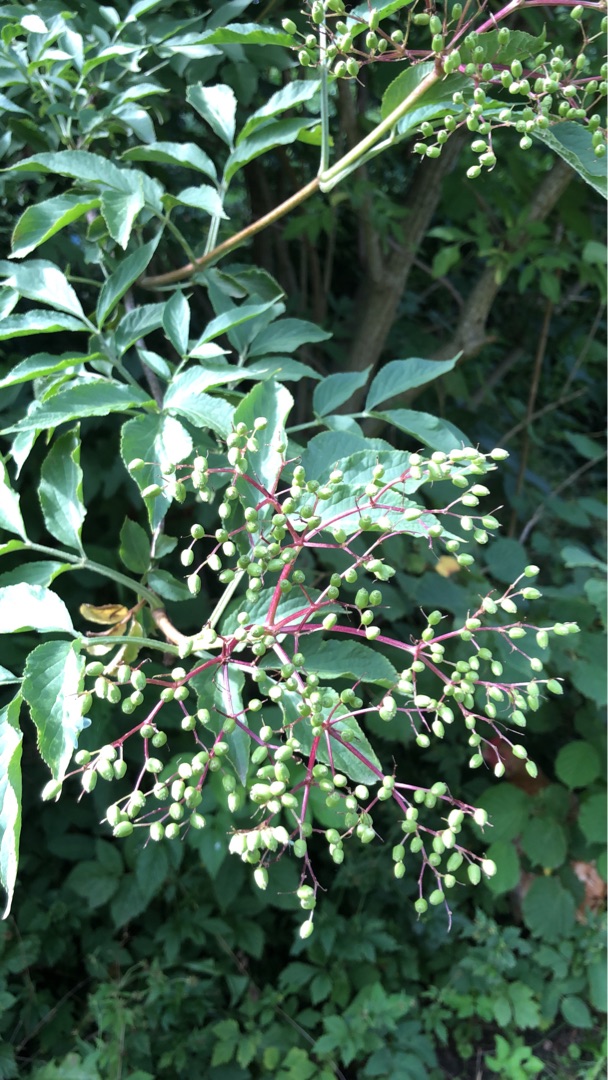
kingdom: Plantae
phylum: Tracheophyta
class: Magnoliopsida
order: Dipsacales
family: Viburnaceae
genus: Sambucus
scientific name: Sambucus nigra
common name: Almindelig hyld
